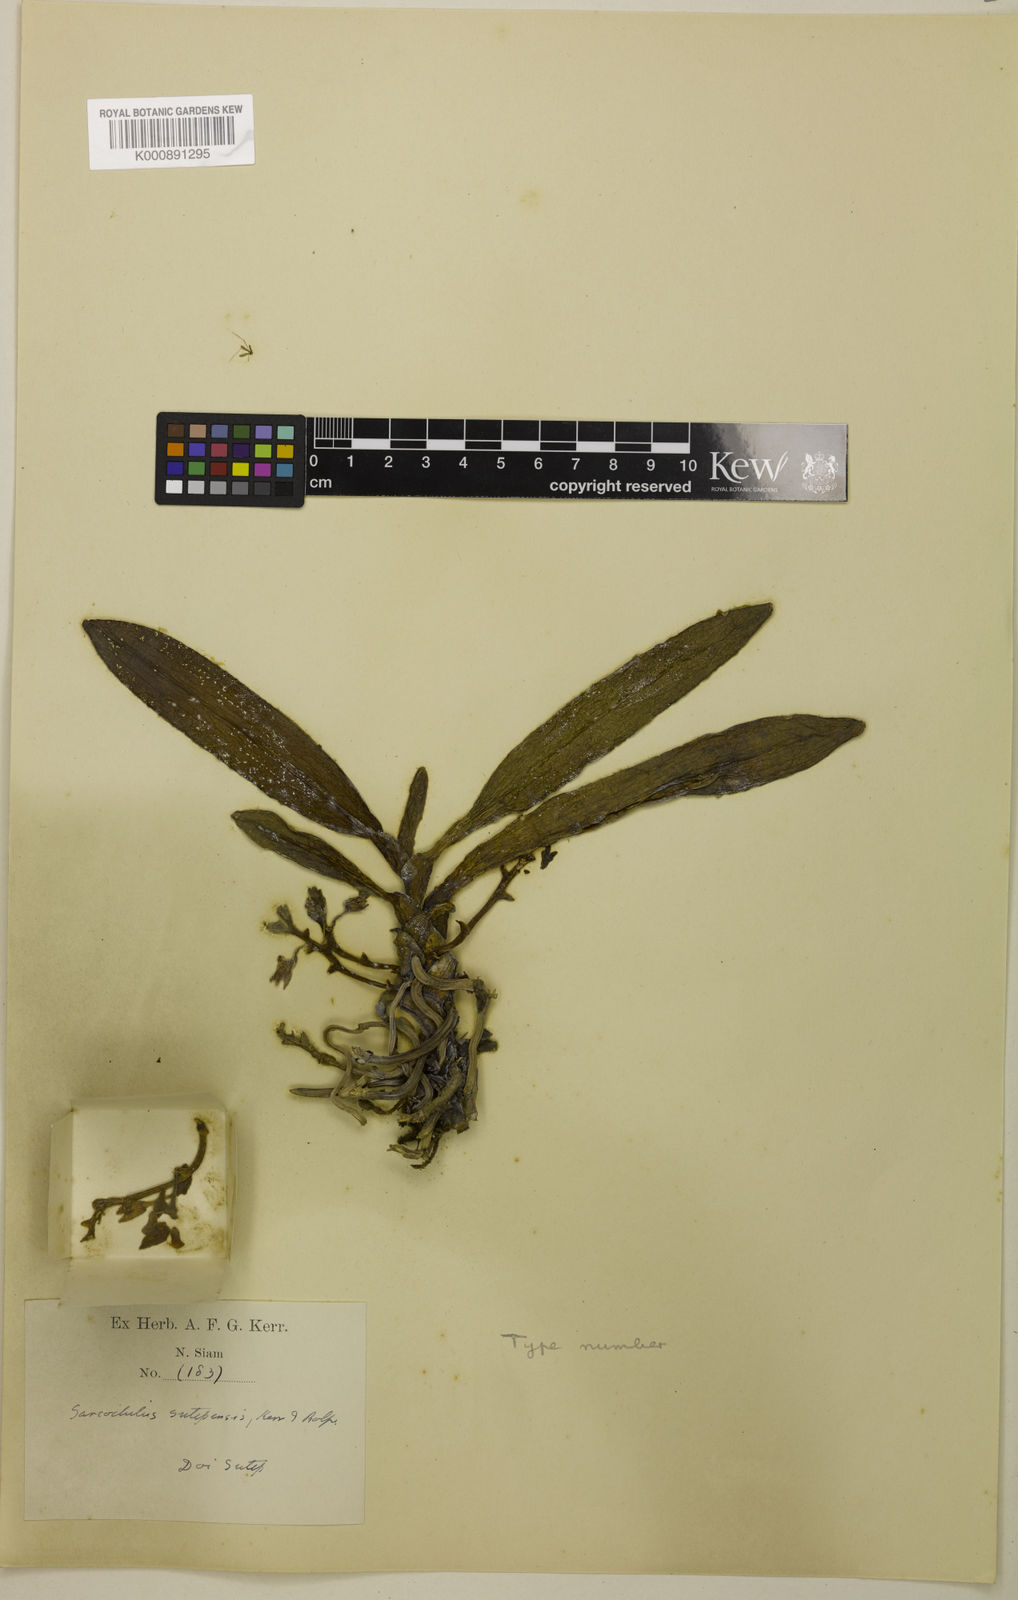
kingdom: Plantae
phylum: Tracheophyta
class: Liliopsida
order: Asparagales
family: Orchidaceae
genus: Thrixspermum
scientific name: Thrixspermum sutepense
